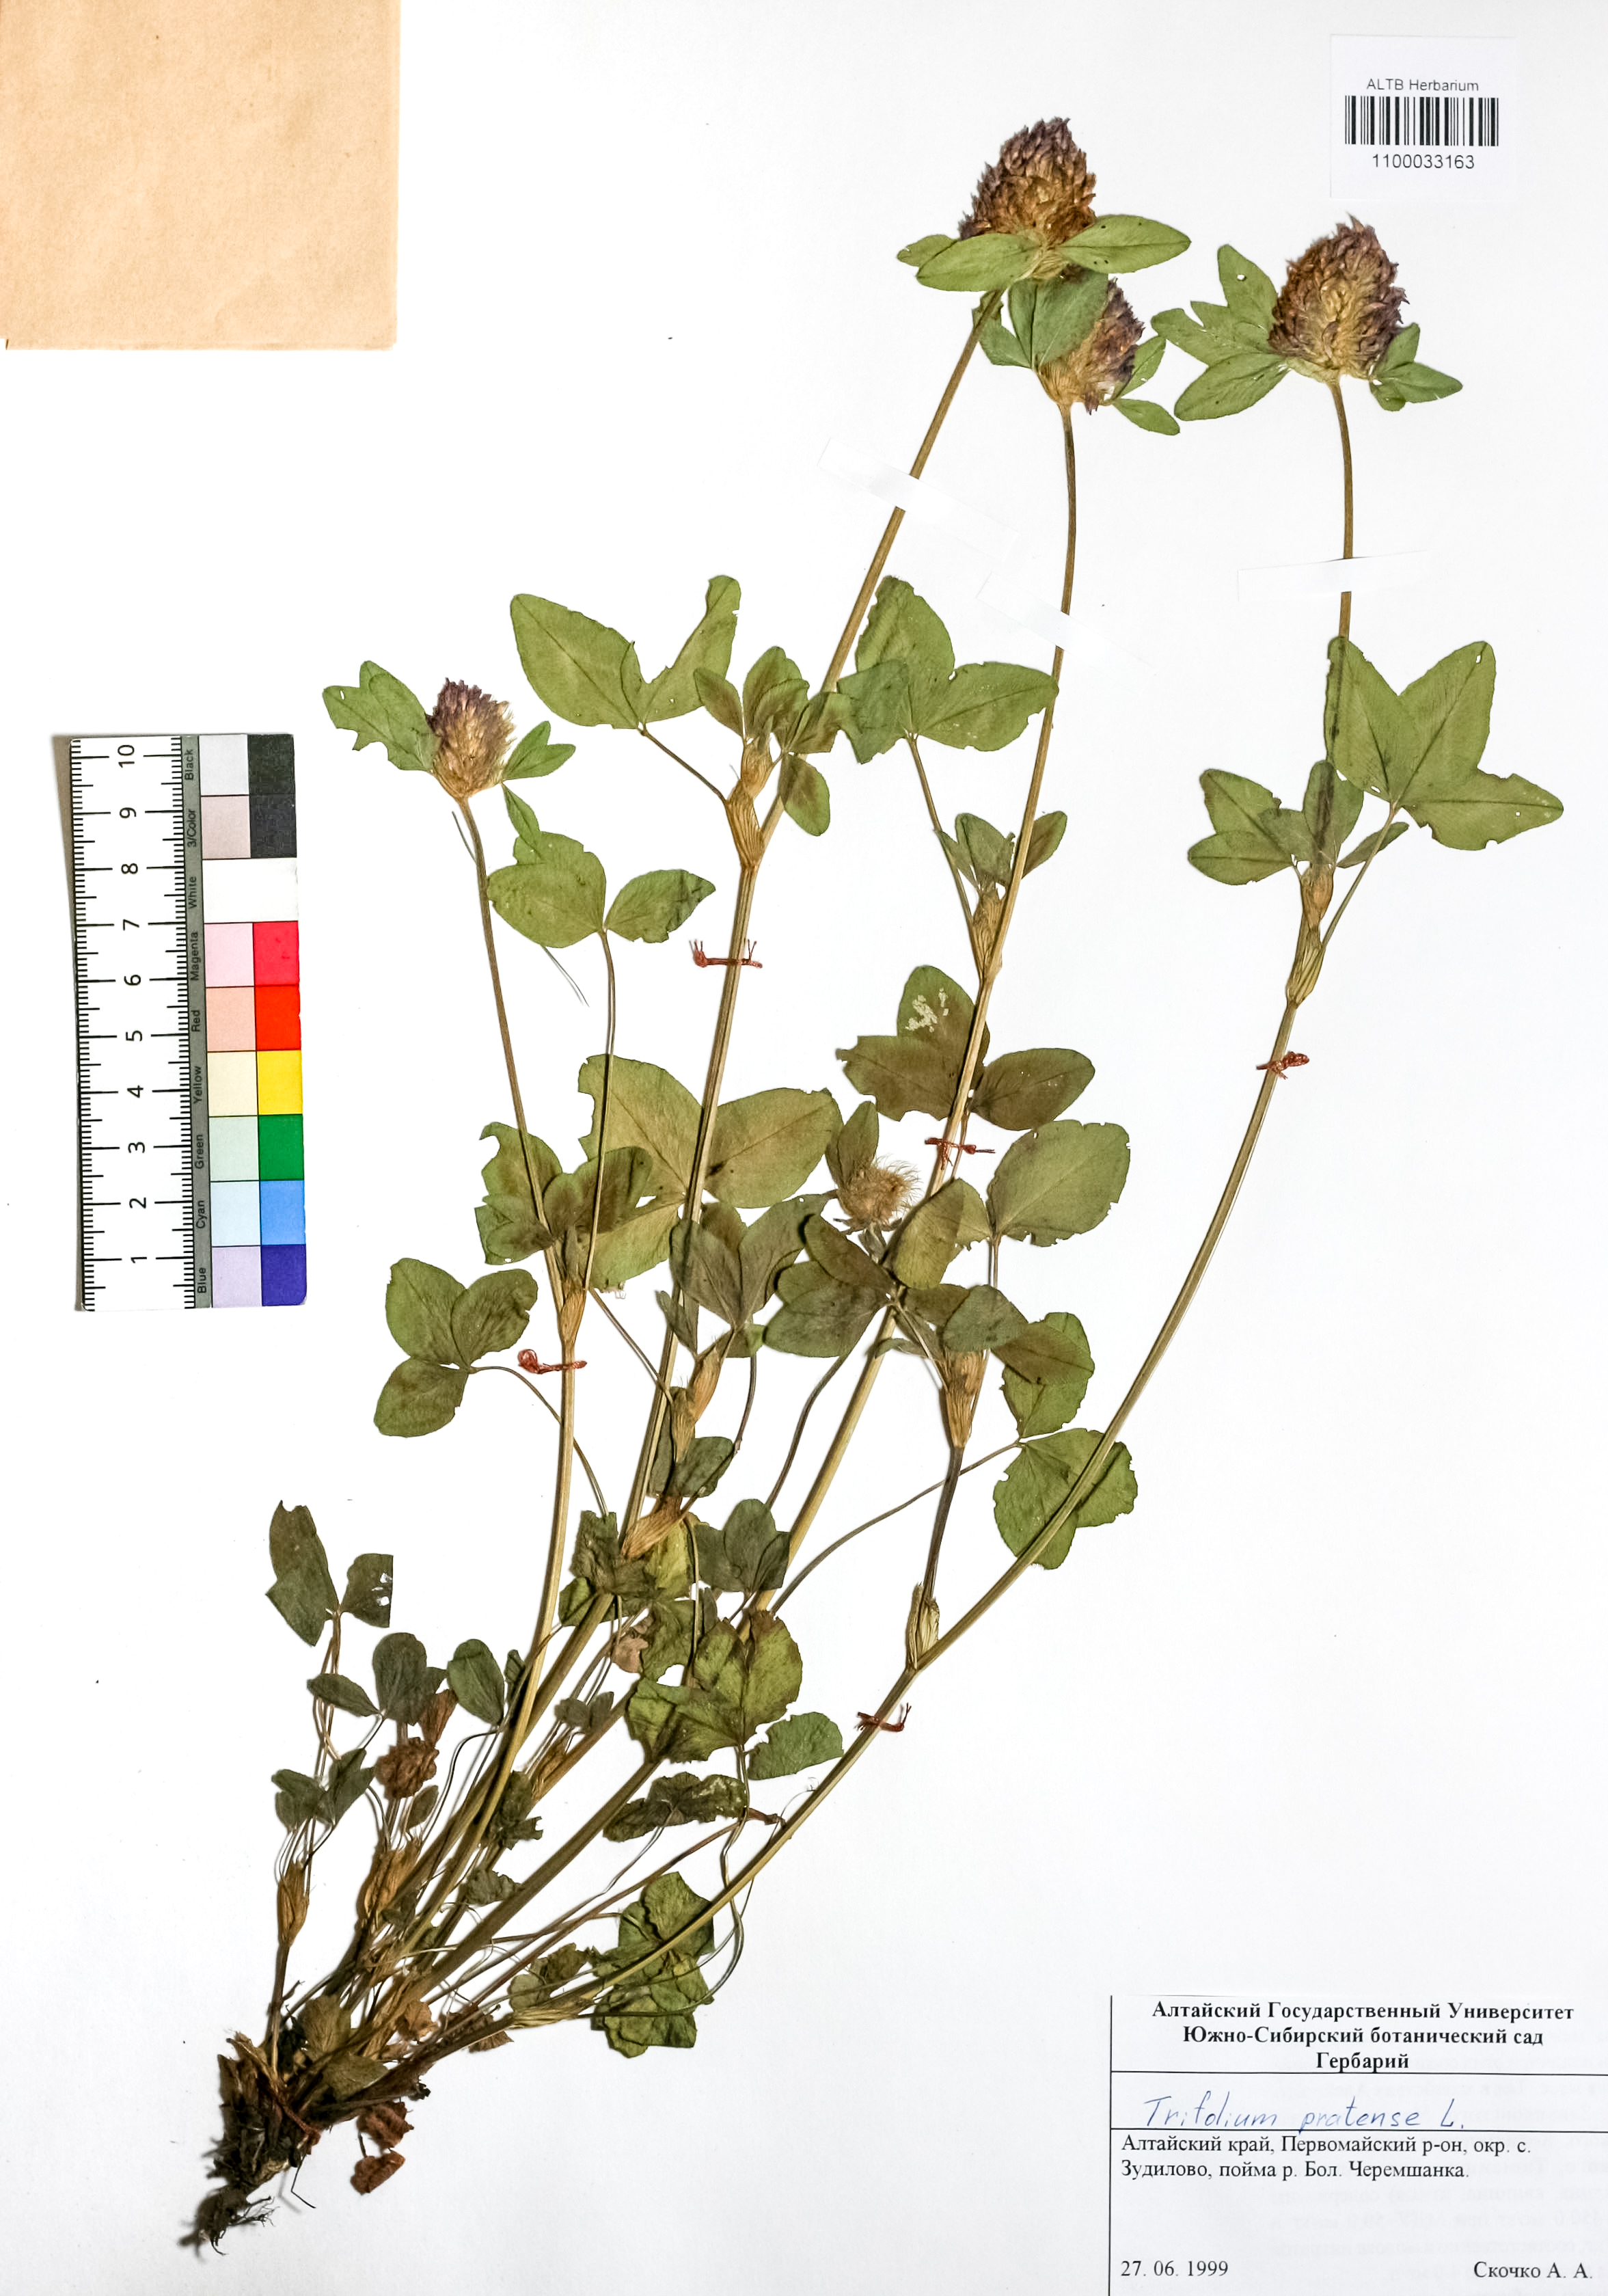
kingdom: Plantae
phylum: Tracheophyta
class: Magnoliopsida
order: Fabales
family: Fabaceae
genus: Trifolium
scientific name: Trifolium pratense
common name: Red clover
